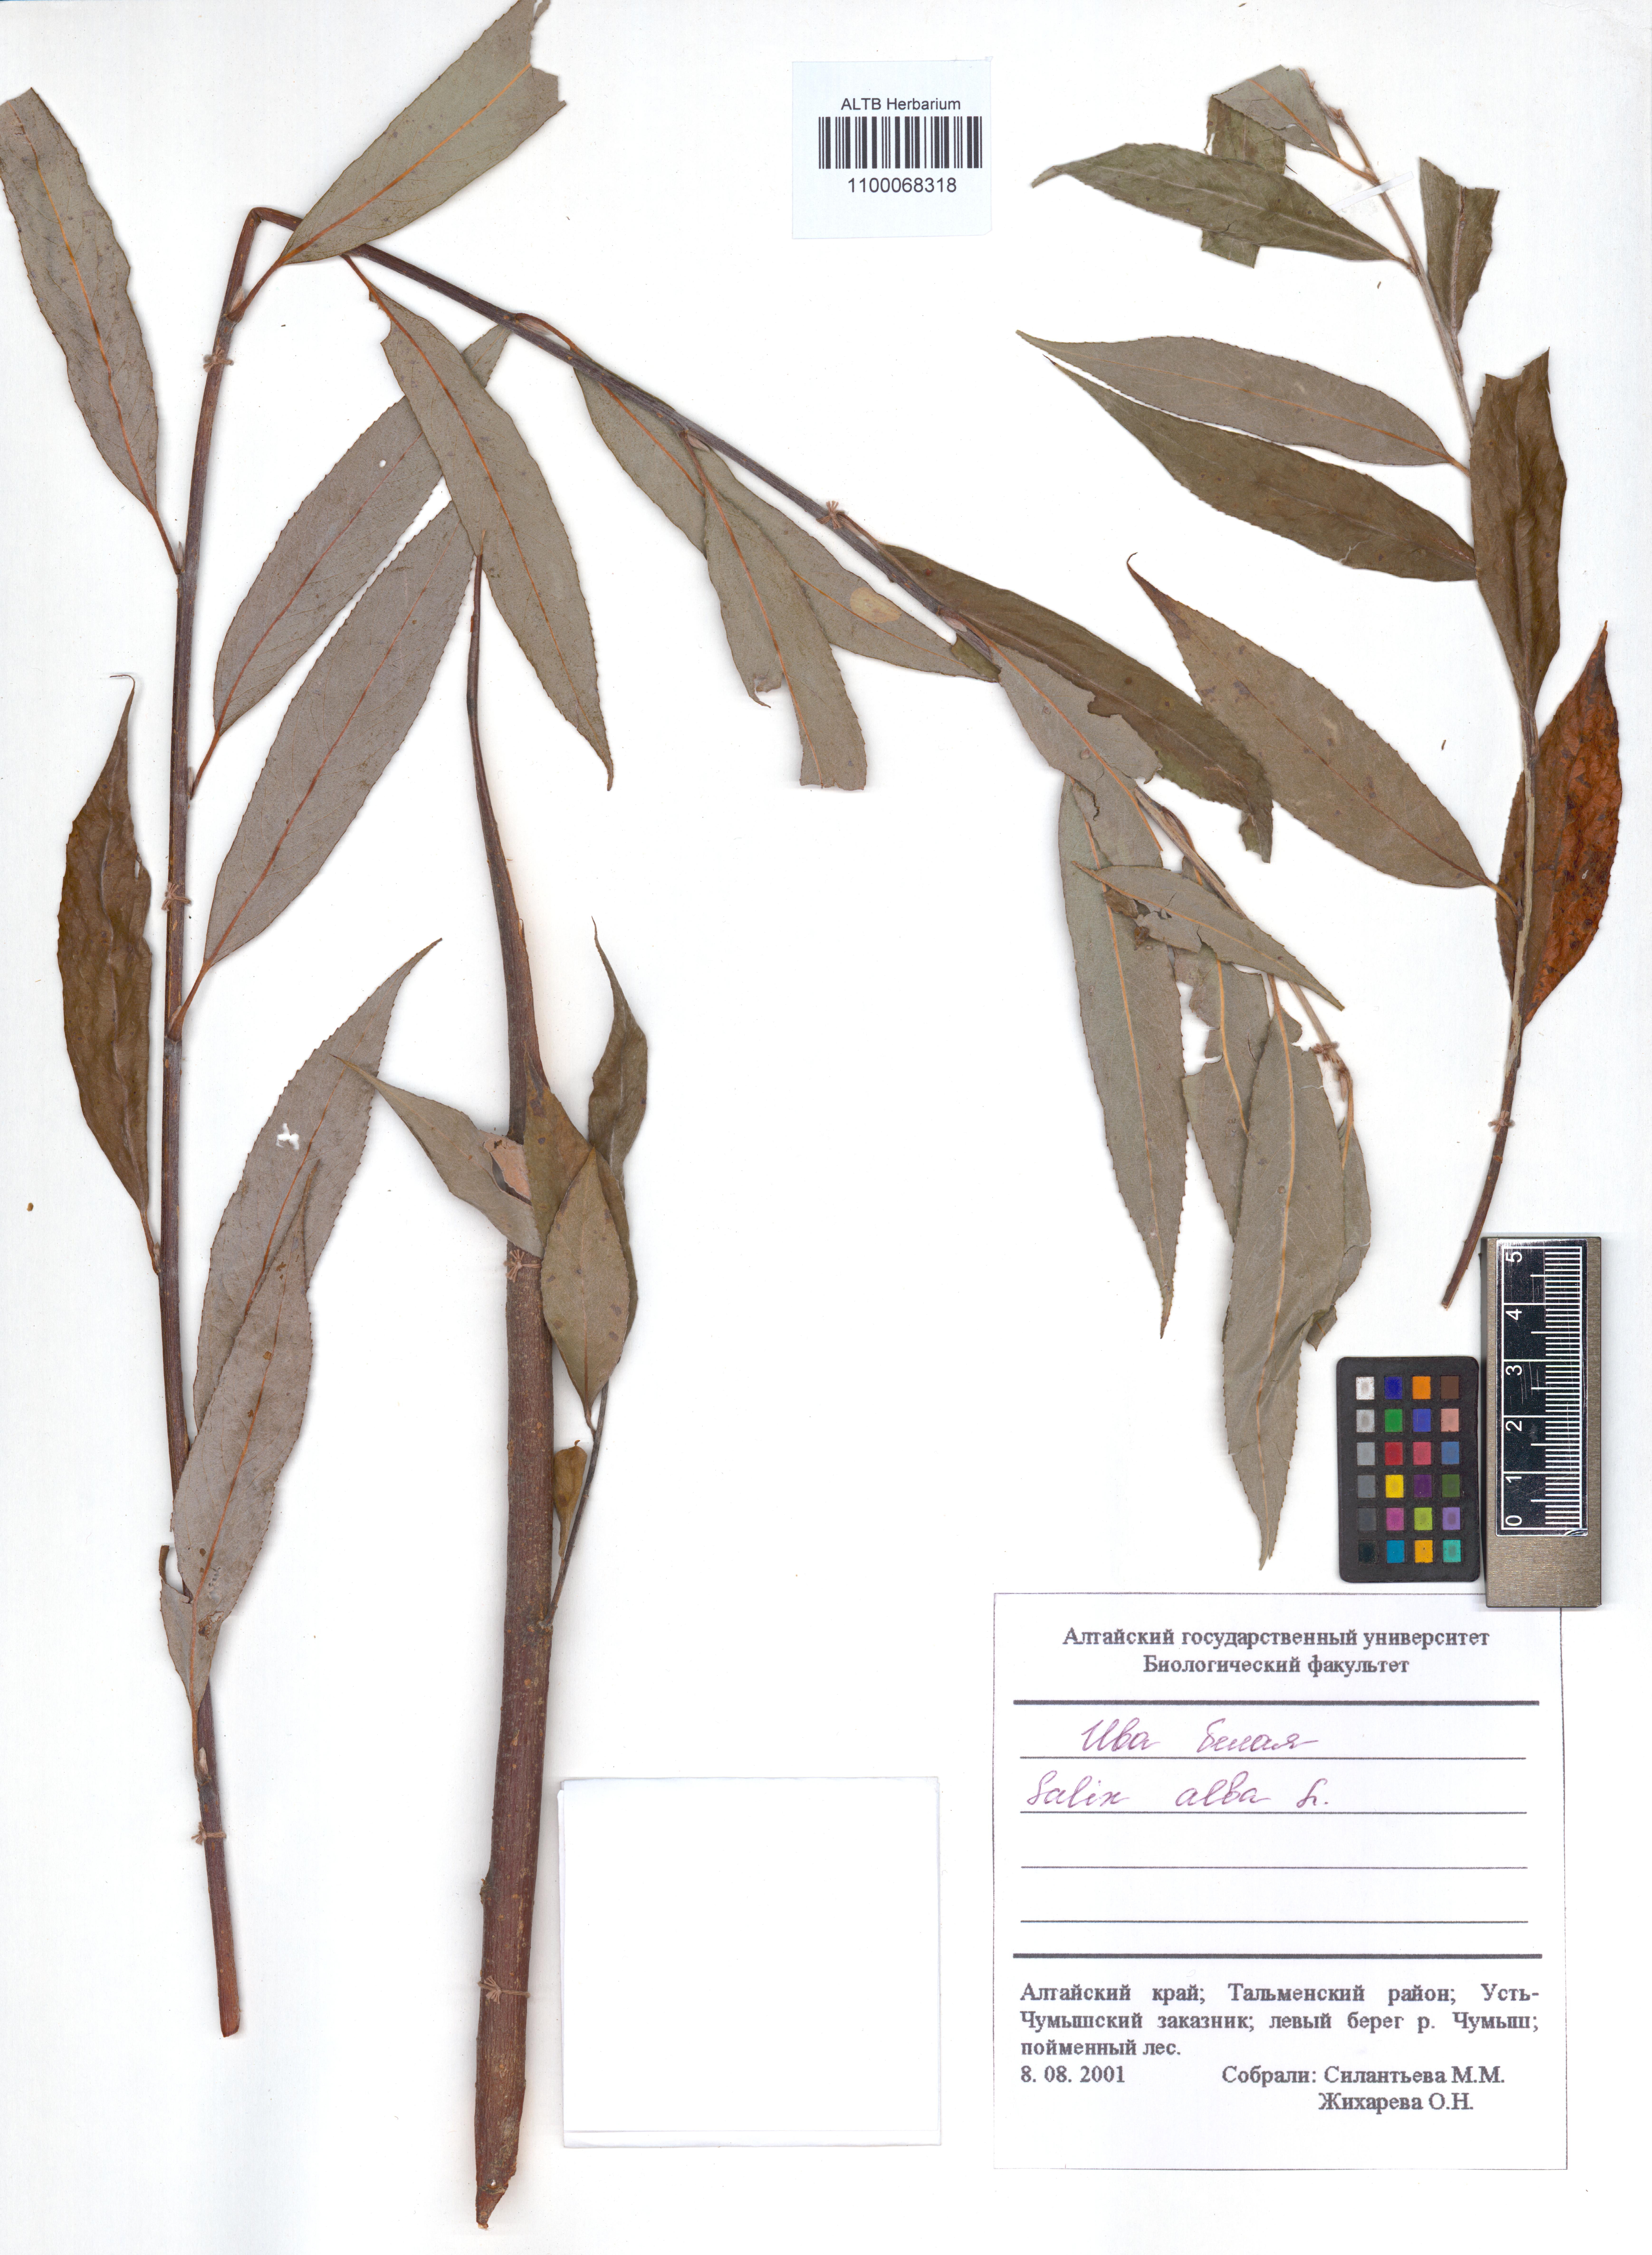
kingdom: Plantae
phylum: Tracheophyta
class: Magnoliopsida
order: Malpighiales
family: Salicaceae
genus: Salix
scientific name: Salix alba
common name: White willow
